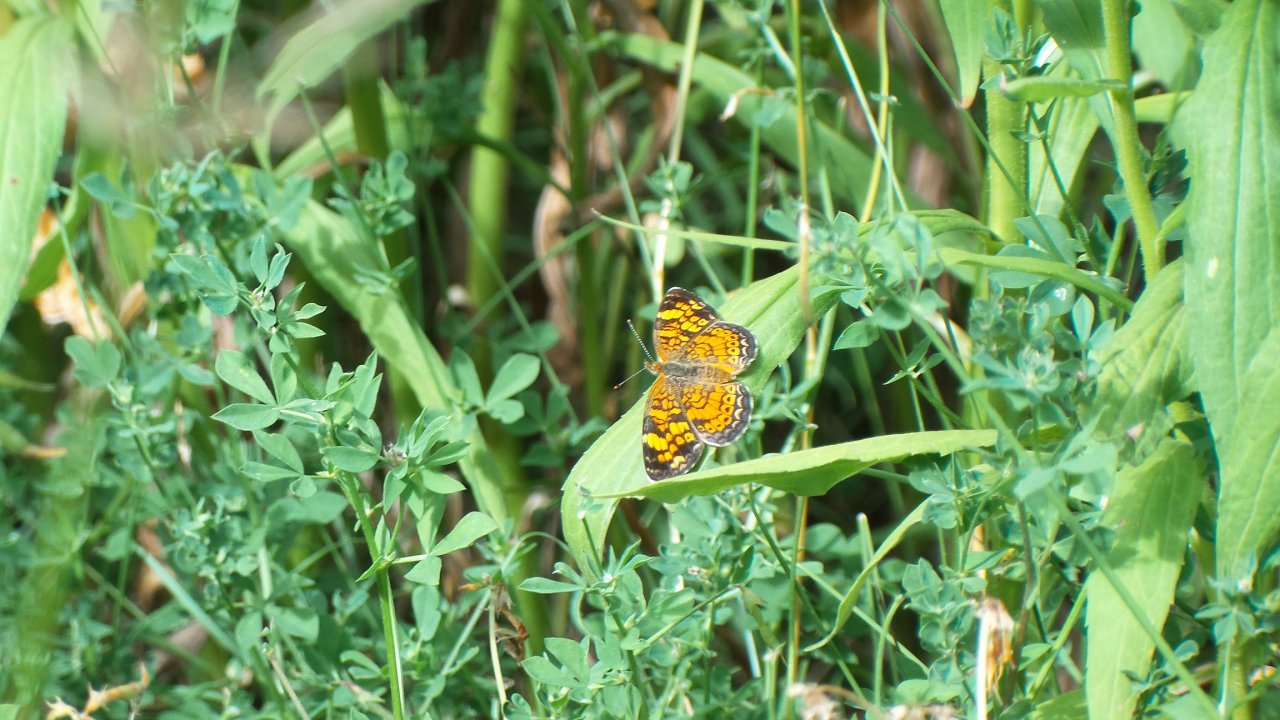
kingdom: Animalia
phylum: Arthropoda
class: Insecta
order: Lepidoptera
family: Nymphalidae
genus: Phyciodes
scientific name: Phyciodes tharos
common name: Northern Crescent
